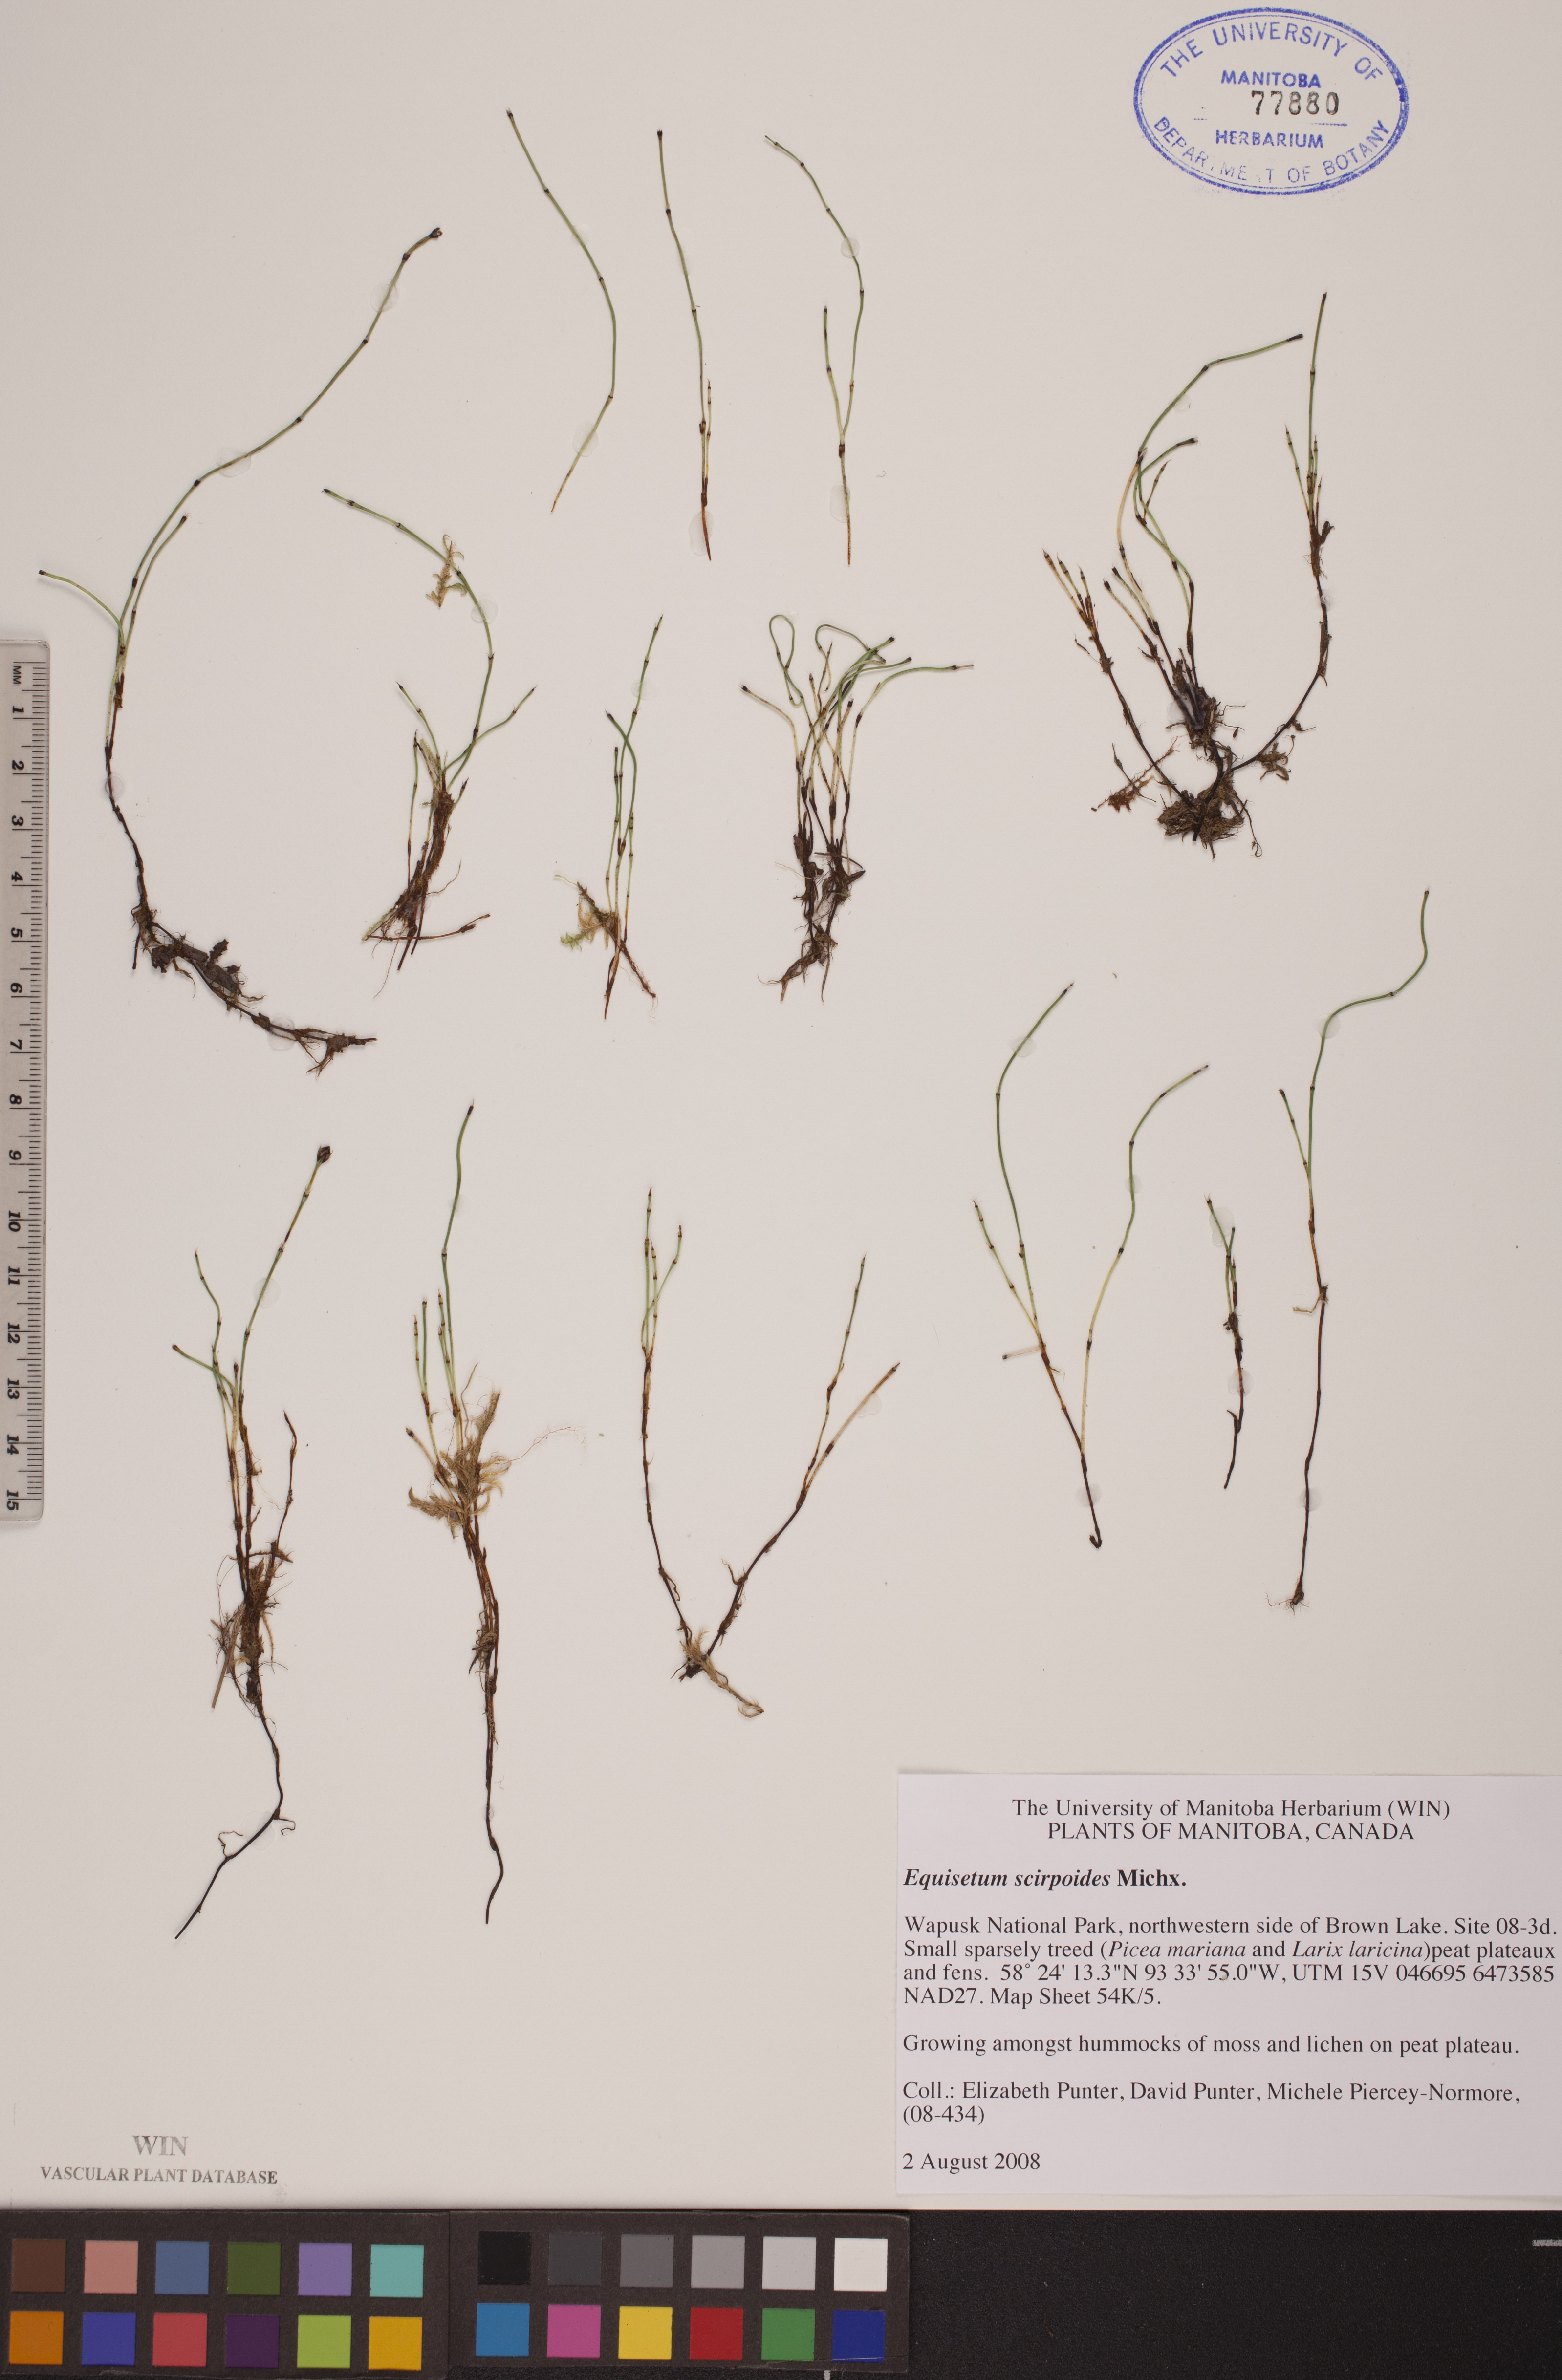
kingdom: Plantae
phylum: Tracheophyta
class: Polypodiopsida
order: Equisetales
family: Equisetaceae
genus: Equisetum
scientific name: Equisetum scirpoides
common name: Delicate horsetail
